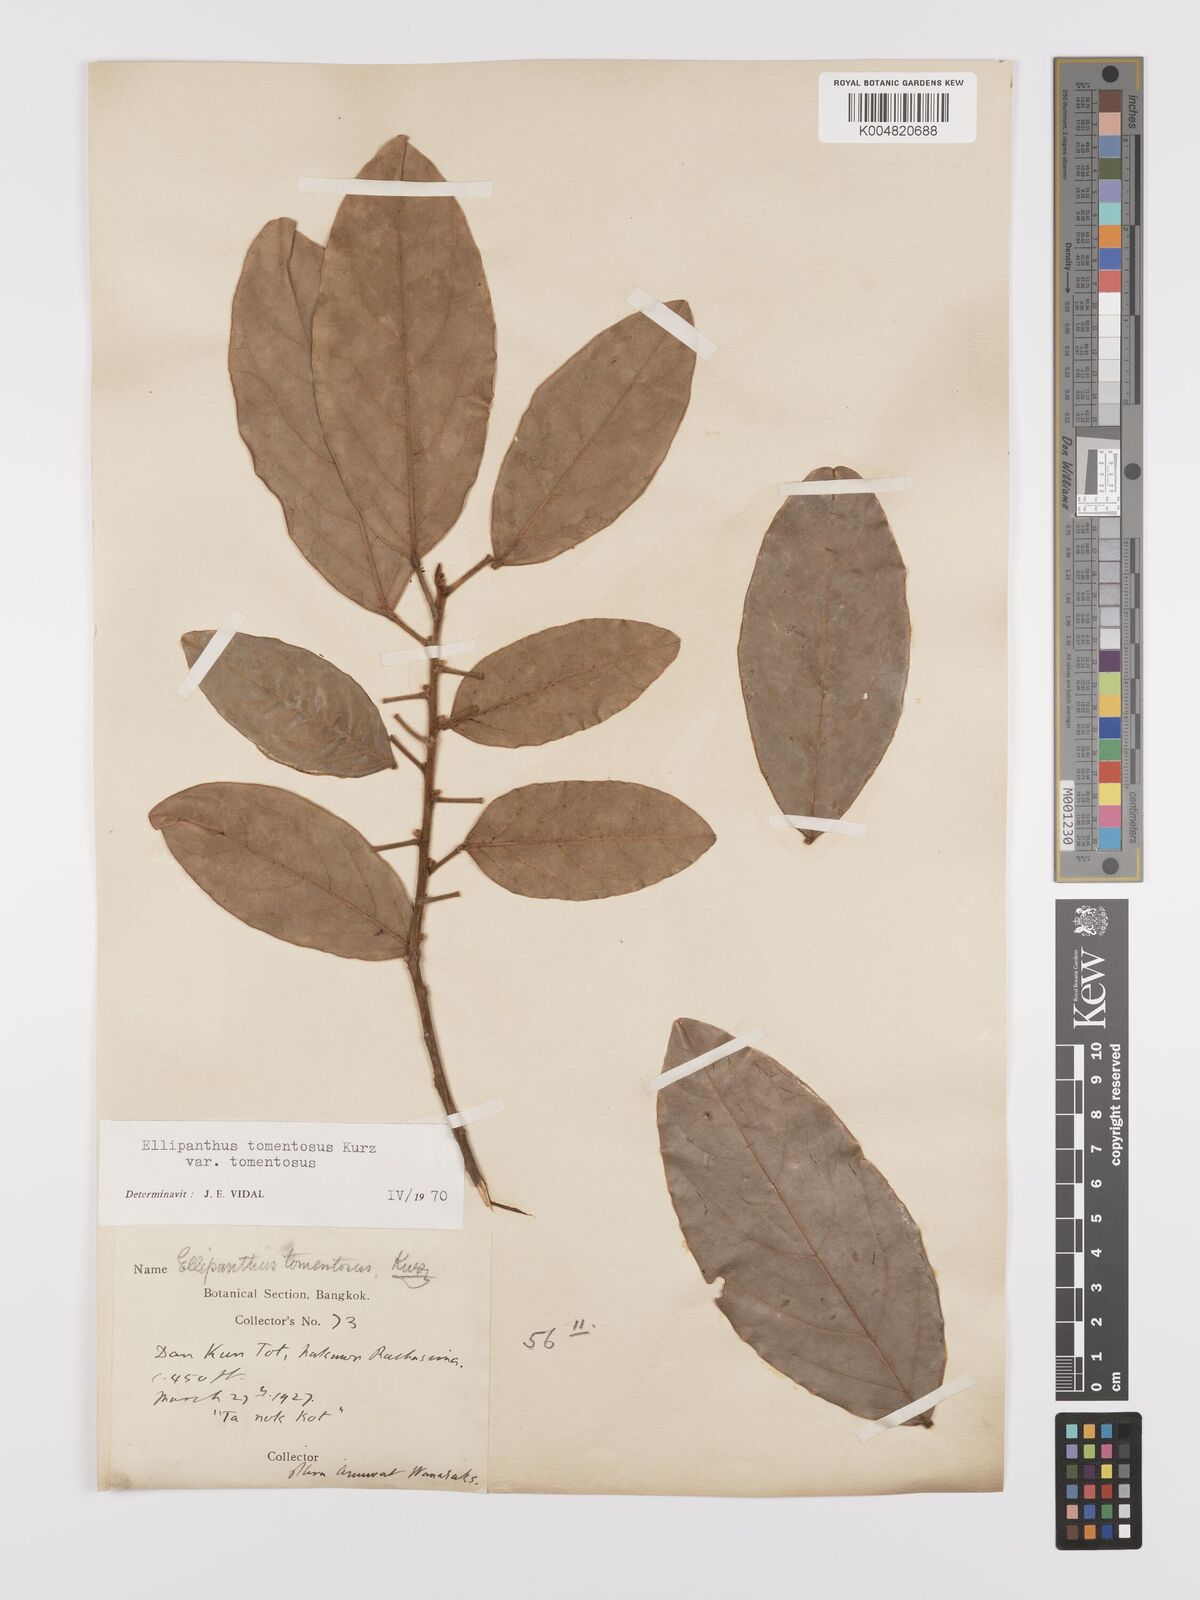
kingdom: Plantae
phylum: Tracheophyta
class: Magnoliopsida
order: Oxalidales
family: Connaraceae
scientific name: Connaraceae
